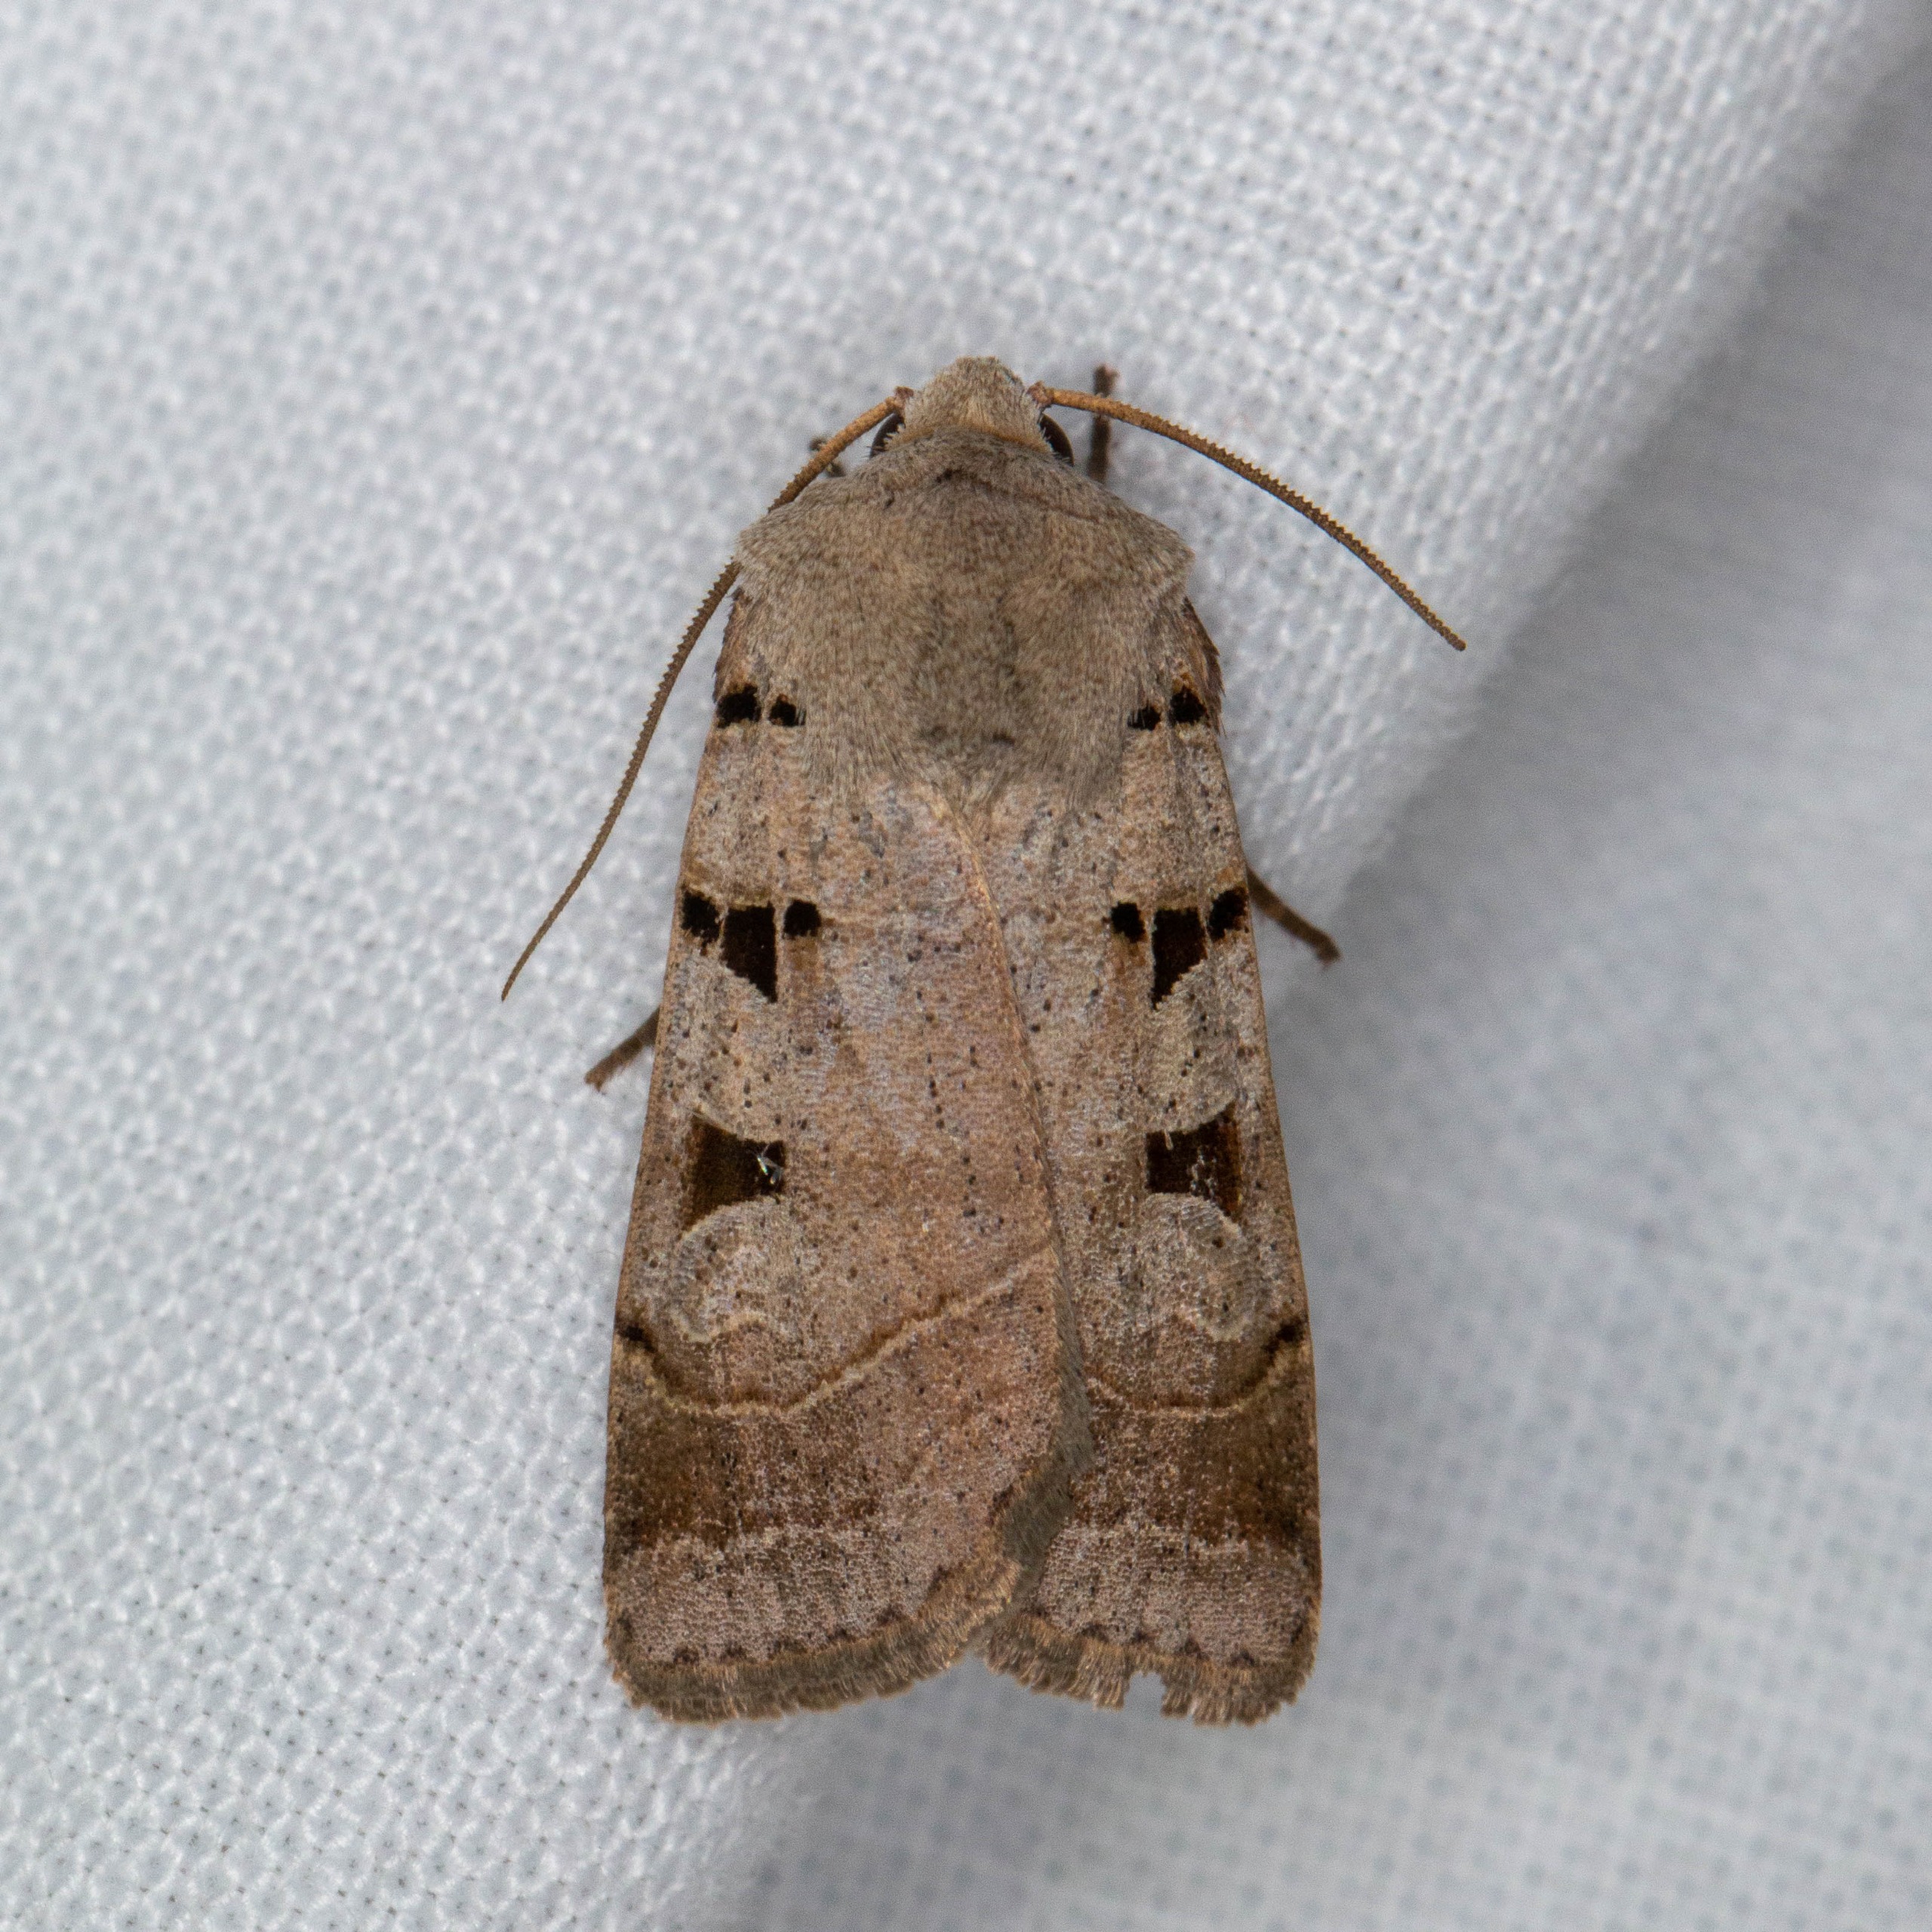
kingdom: Animalia
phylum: Arthropoda
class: Insecta
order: Lepidoptera
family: Noctuidae
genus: Eugnorisma
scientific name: Eugnorisma glareosa
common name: Strand-gråugle
